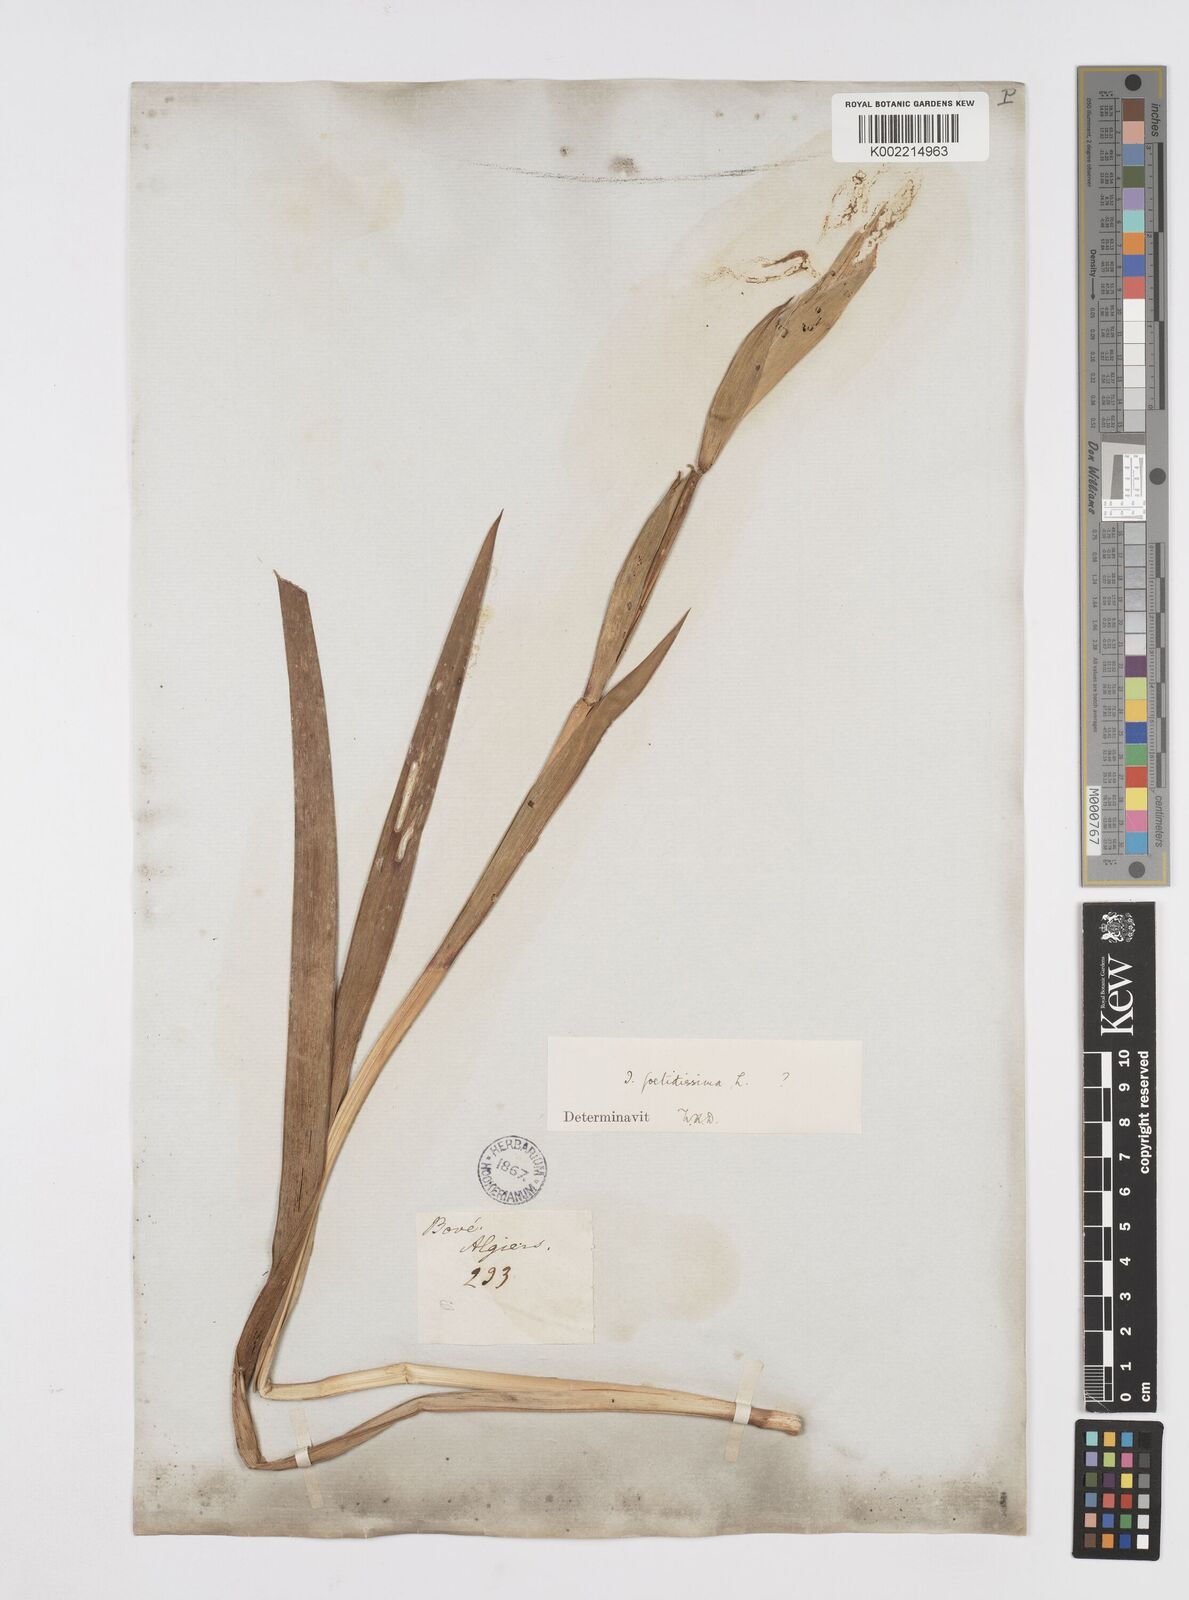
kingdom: Plantae
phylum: Tracheophyta
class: Liliopsida
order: Asparagales
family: Iridaceae
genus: Iris
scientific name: Iris foetidissima
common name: Stinking iris
